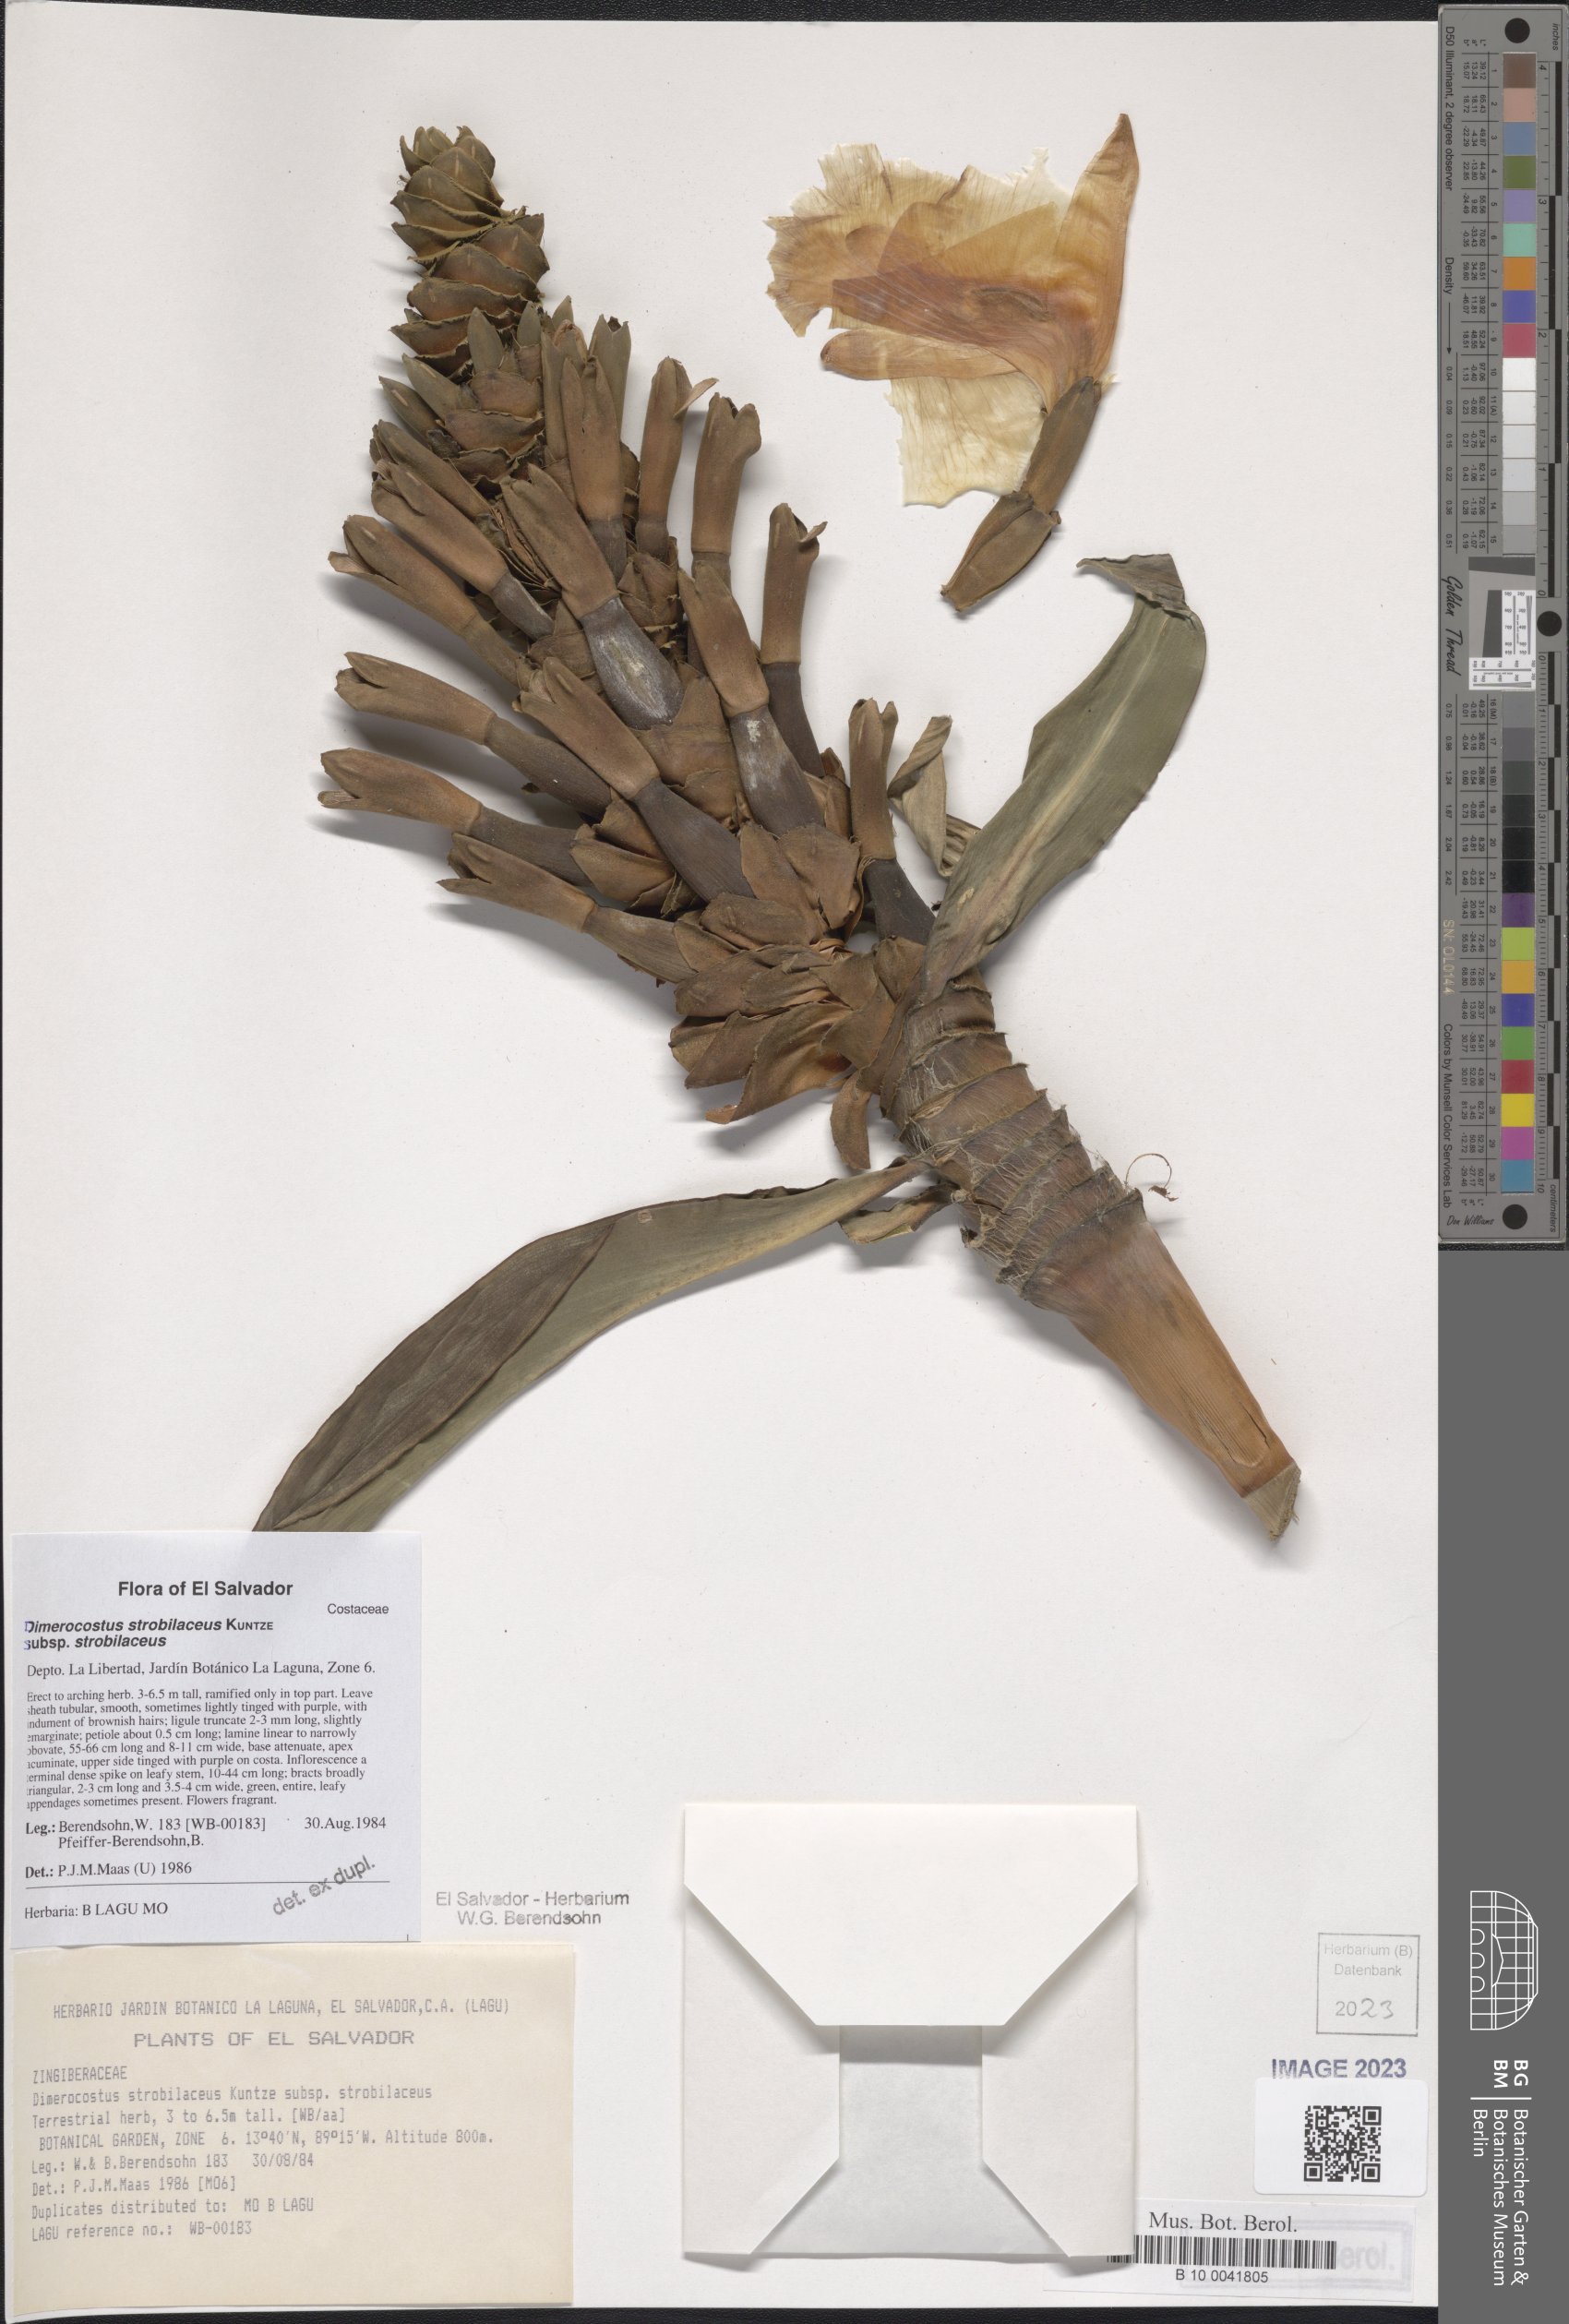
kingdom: Plantae
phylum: Tracheophyta
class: Liliopsida
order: Zingiberales
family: Costaceae
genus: Dimerocostus
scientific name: Dimerocostus strobilaceus
